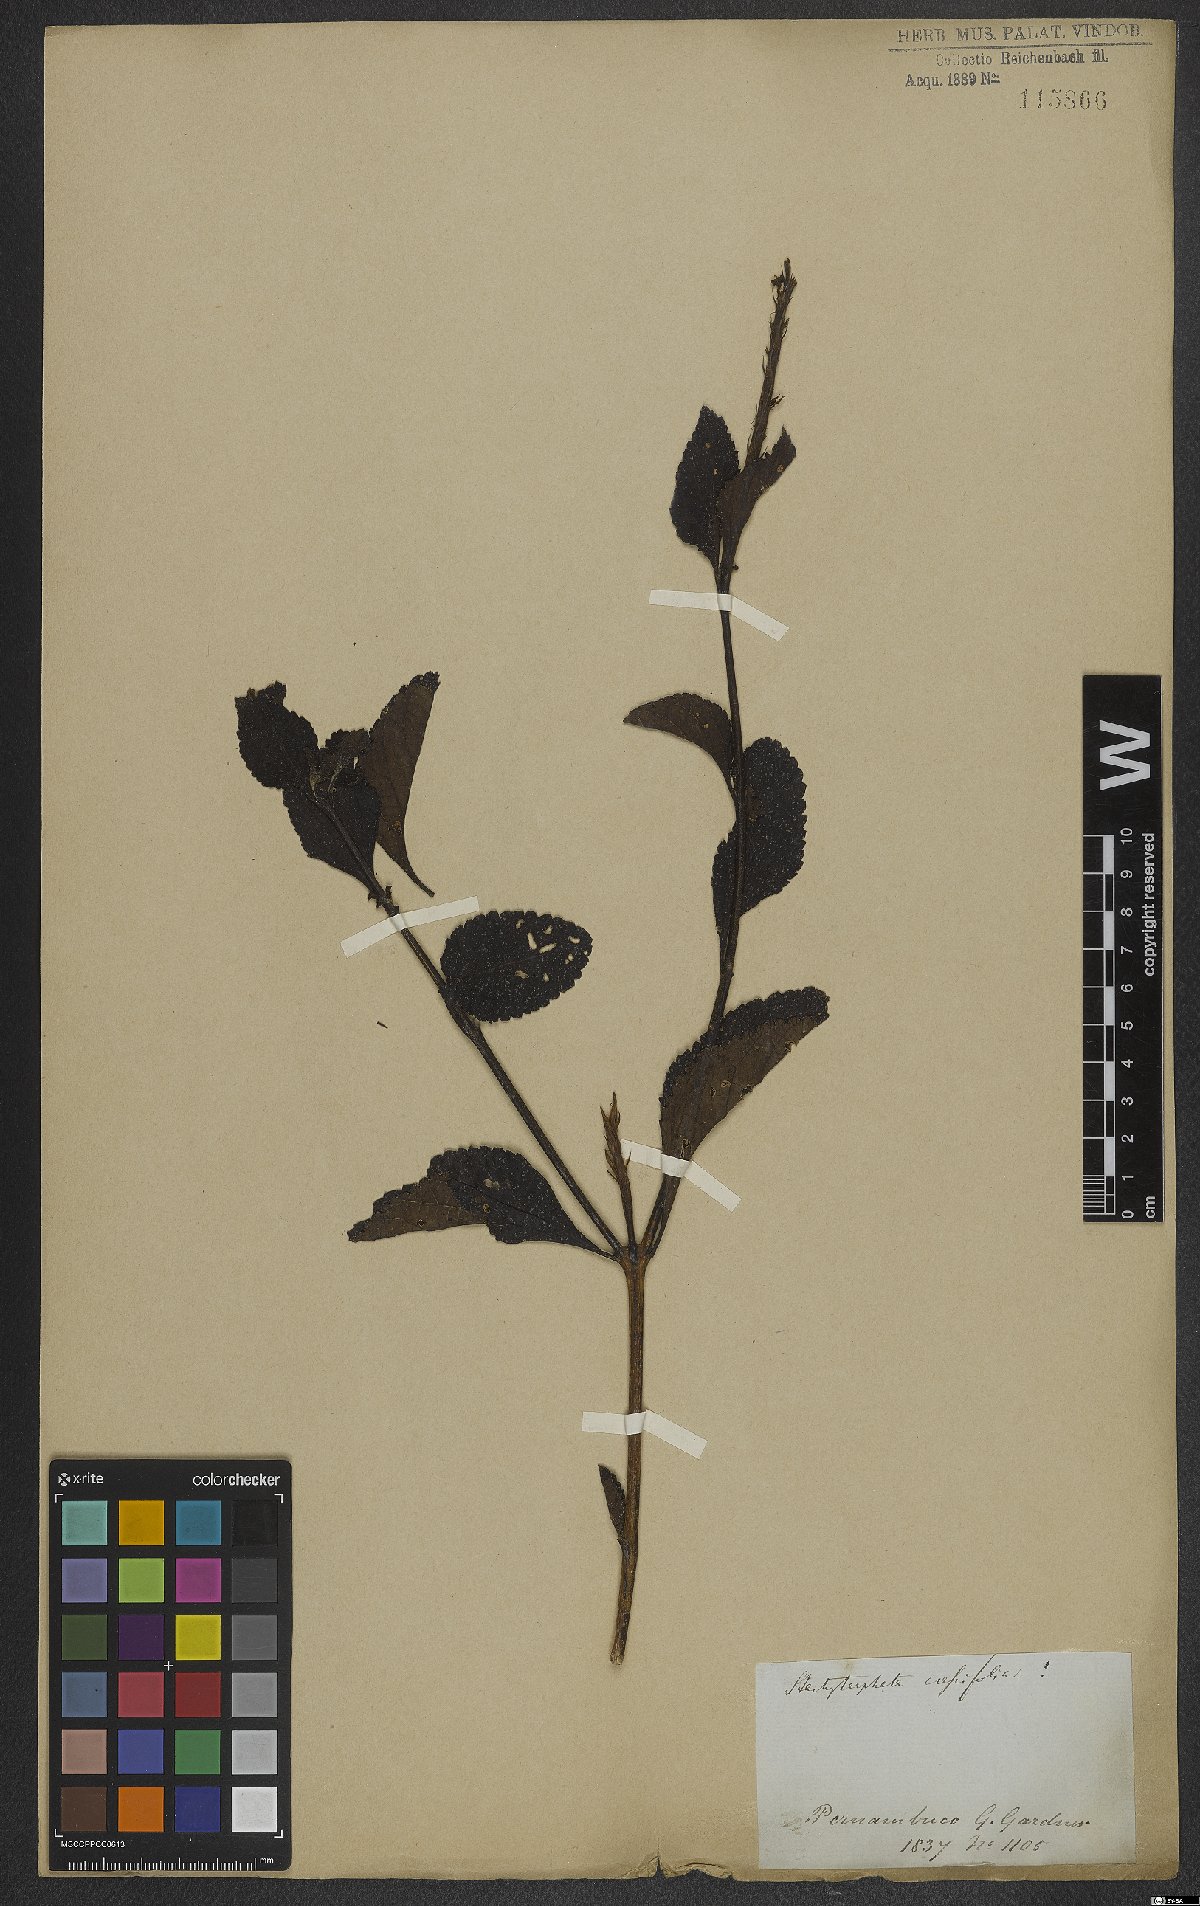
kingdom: Plantae
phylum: Tracheophyta
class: Magnoliopsida
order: Lamiales
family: Verbenaceae
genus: Stachytarpheta
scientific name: Stachytarpheta crassifolia
